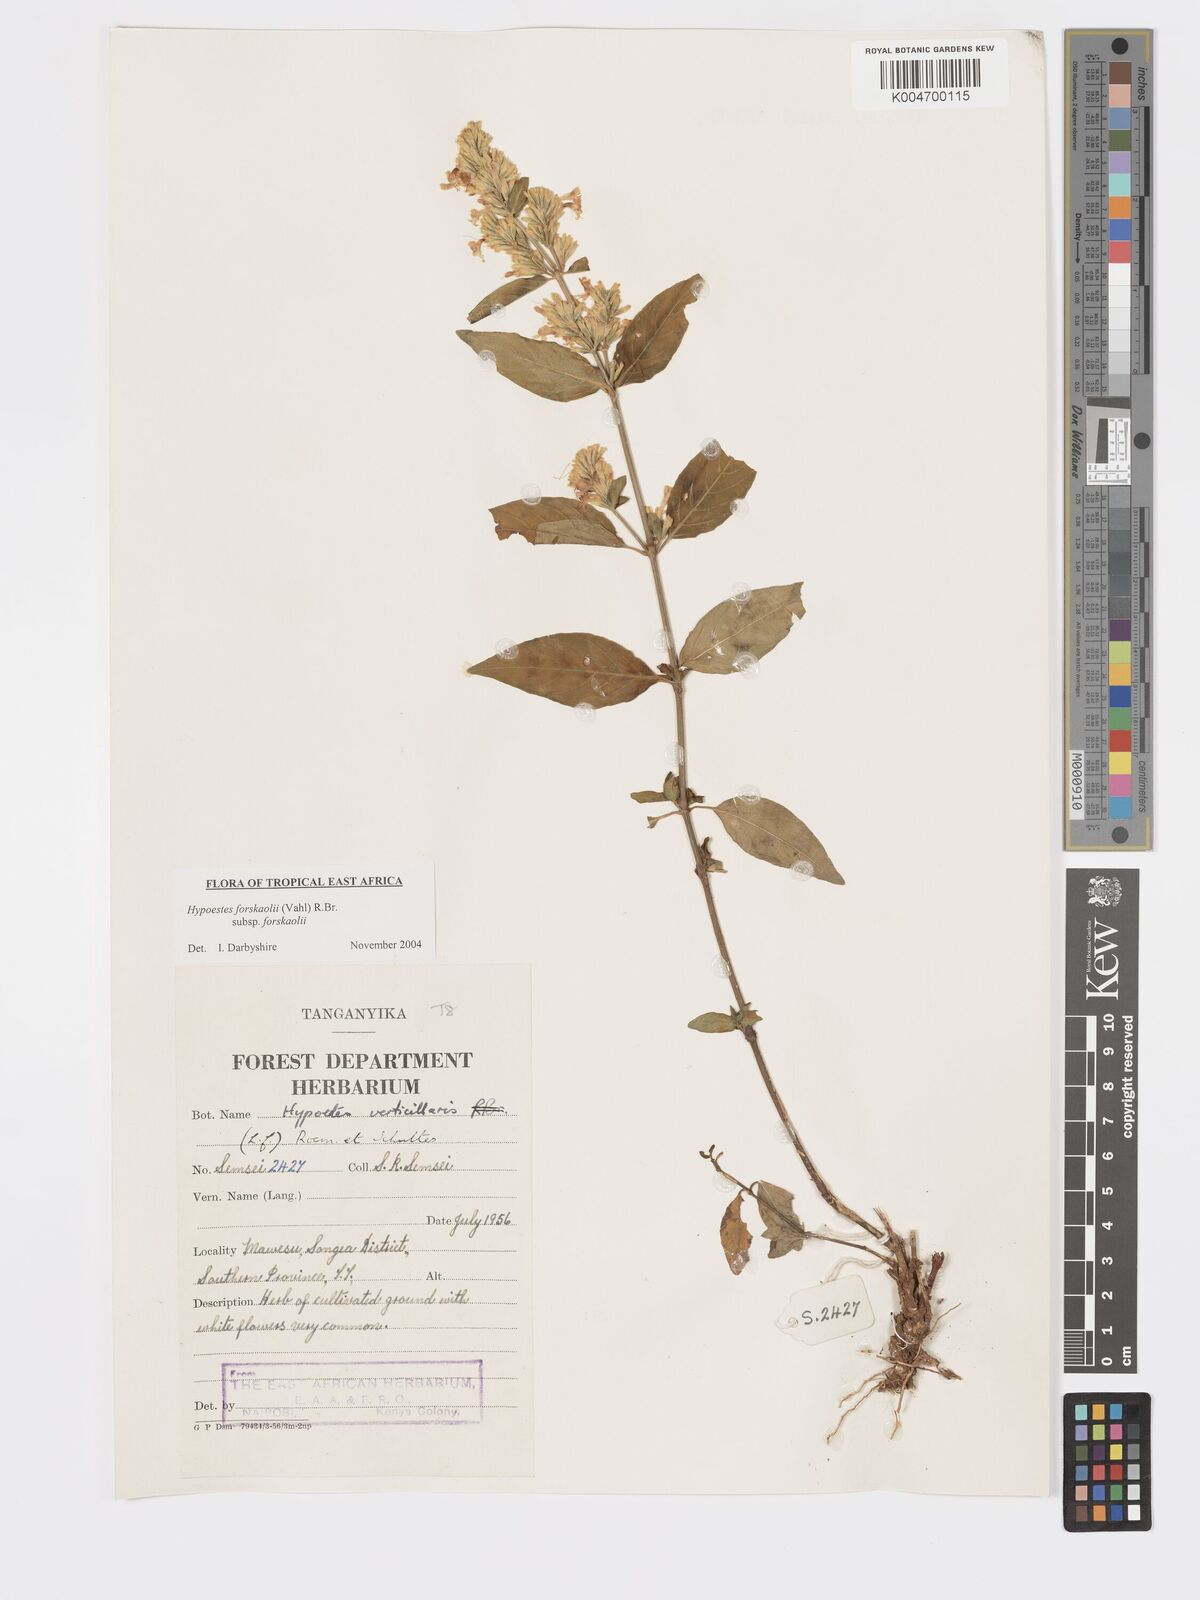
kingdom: Plantae
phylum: Tracheophyta
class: Magnoliopsida
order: Lamiales
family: Acanthaceae
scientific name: Acanthaceae
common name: Acanthaceae
